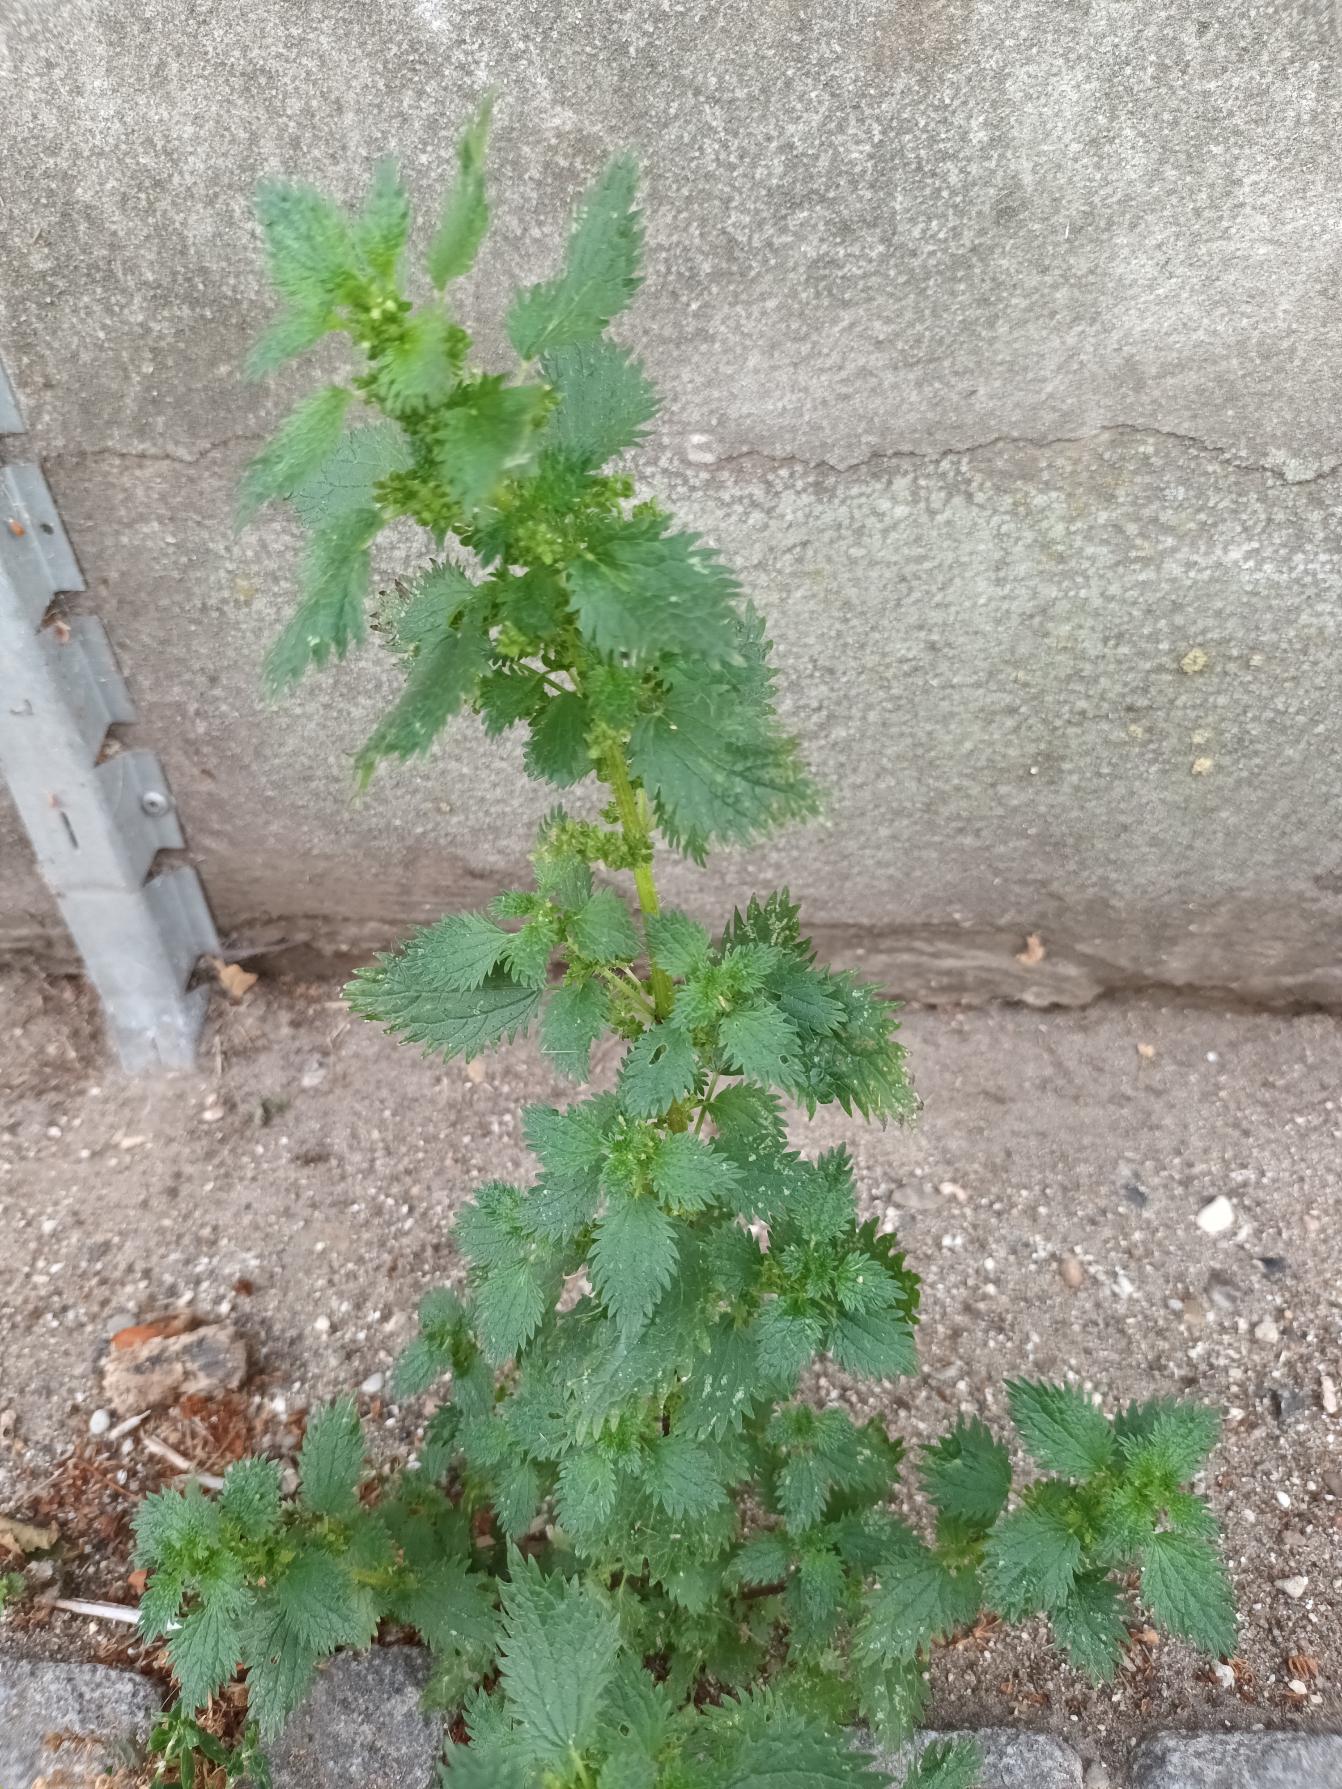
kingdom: Plantae
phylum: Tracheophyta
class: Magnoliopsida
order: Rosales
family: Urticaceae
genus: Urtica
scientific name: Urtica urens
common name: Liden nælde
